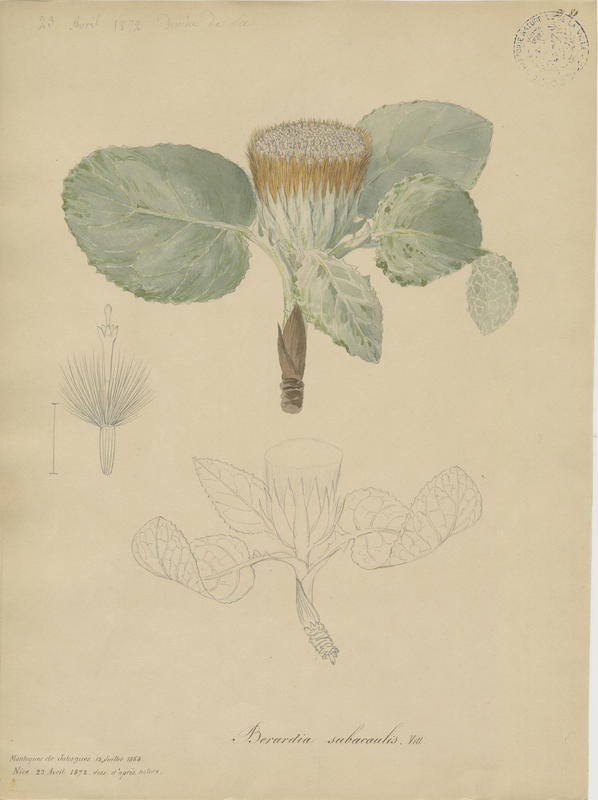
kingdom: Plantae
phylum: Tracheophyta
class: Magnoliopsida
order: Asterales
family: Asteraceae
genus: Berardia
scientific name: Berardia lanuginosa
